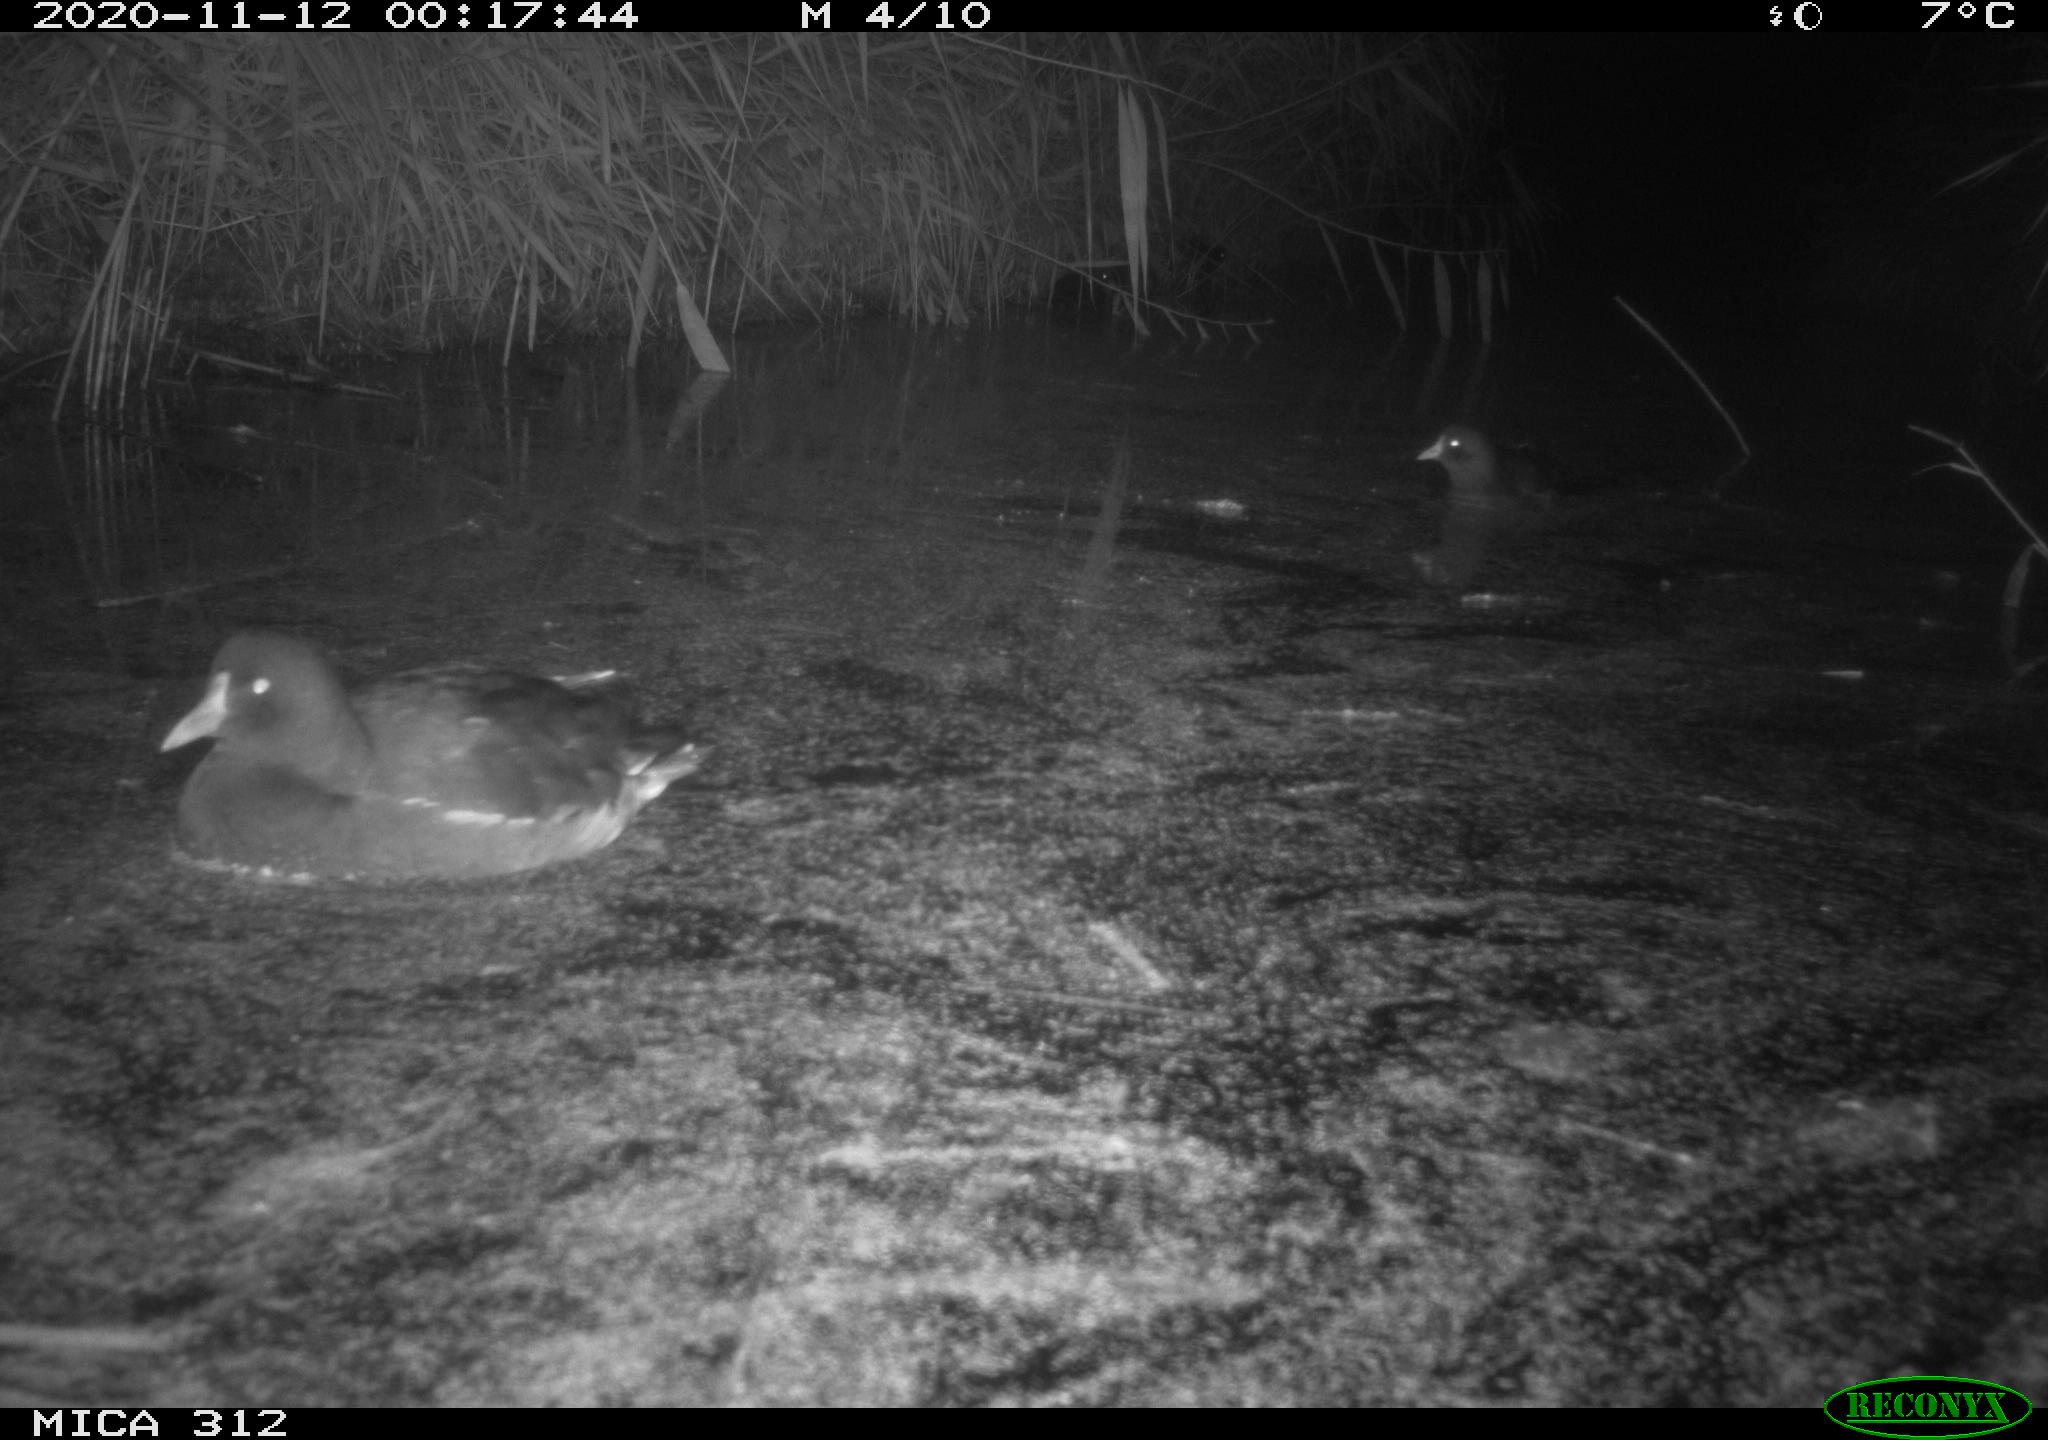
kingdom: Animalia
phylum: Chordata
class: Aves
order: Gruiformes
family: Rallidae
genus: Fulica
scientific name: Fulica atra
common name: Eurasian coot
